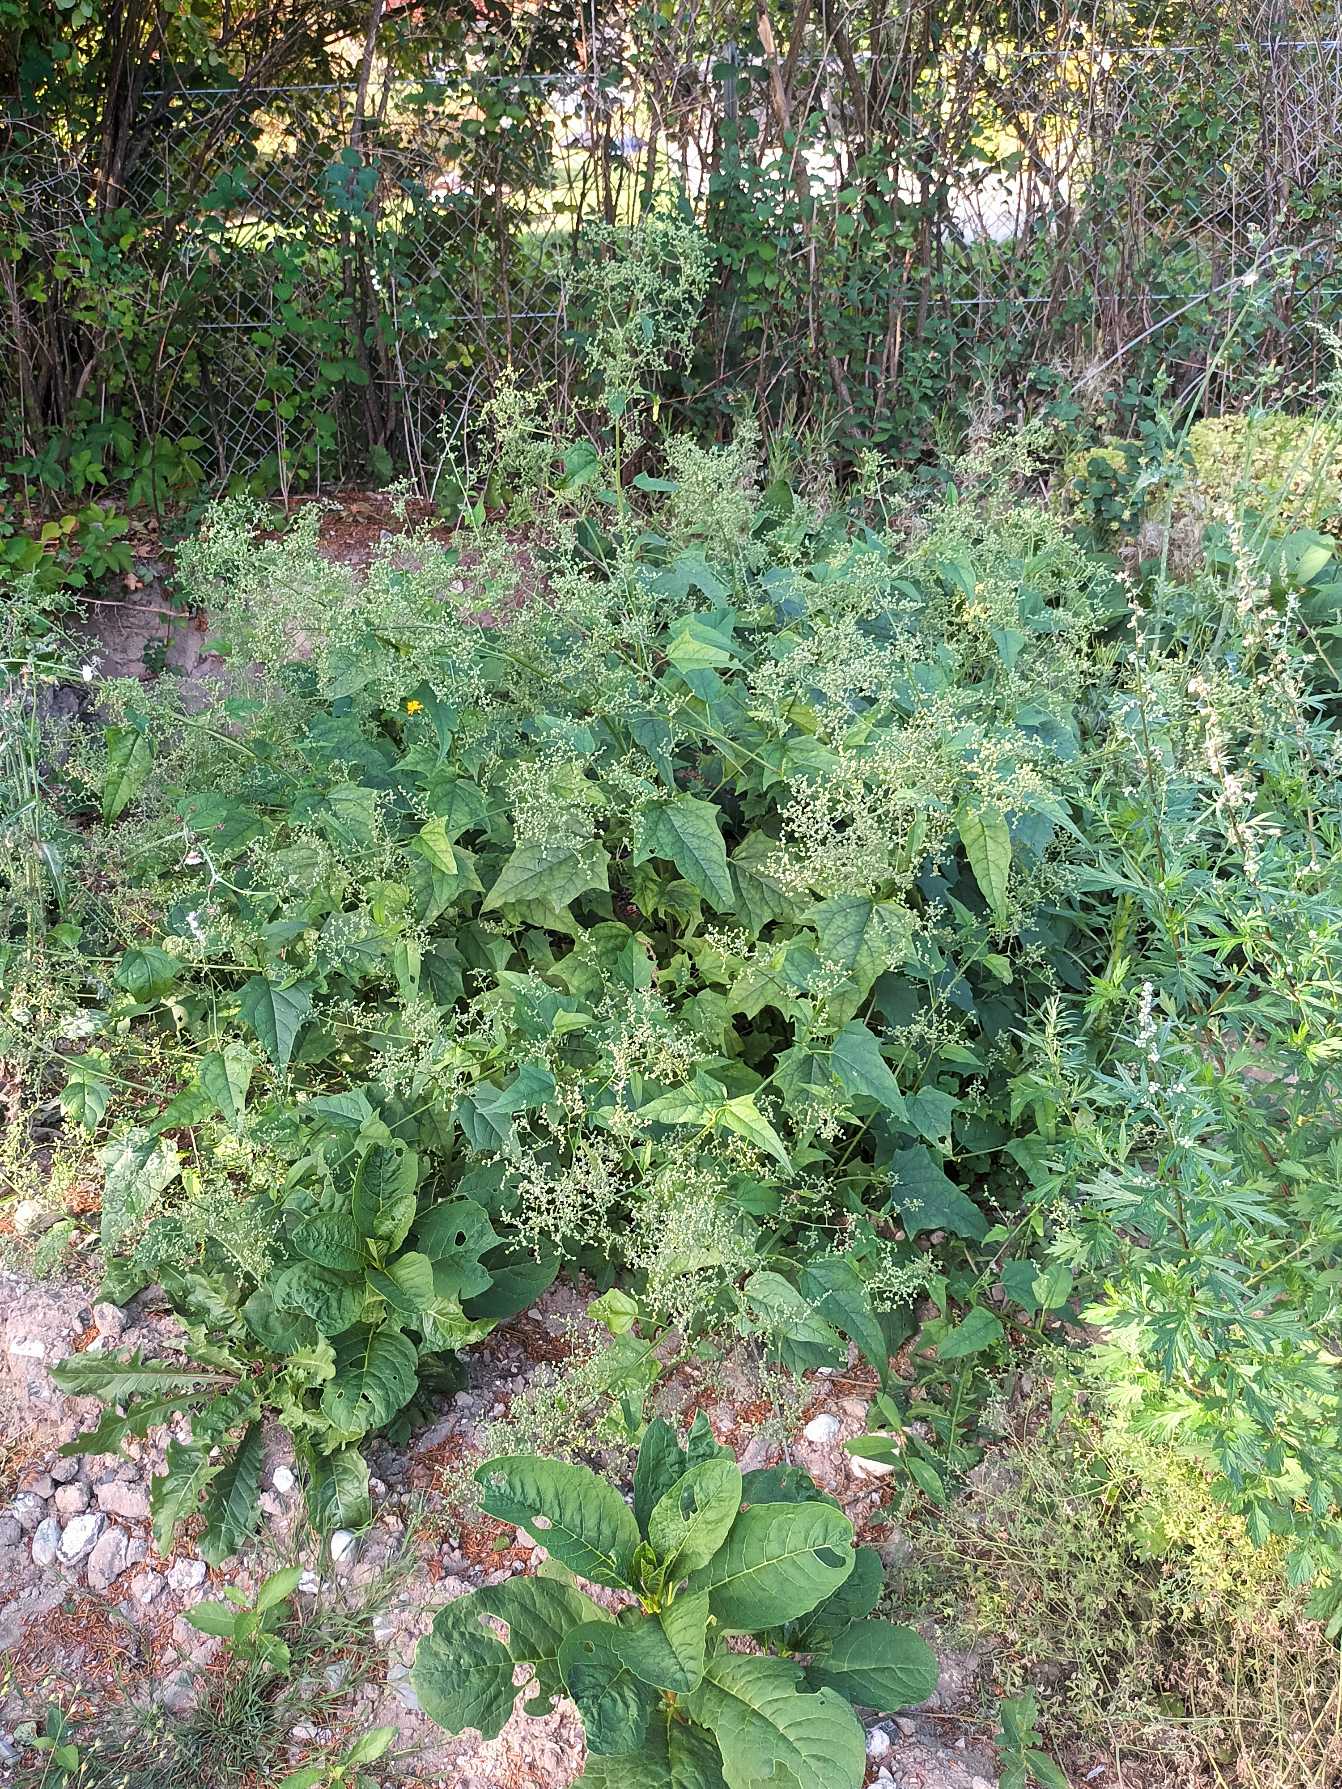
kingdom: Plantae
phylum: Tracheophyta
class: Magnoliopsida
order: Caryophyllales
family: Amaranthaceae
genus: Chenopodiastrum
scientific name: Chenopodiastrum hybridum
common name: Hjertebladet gåsefod
